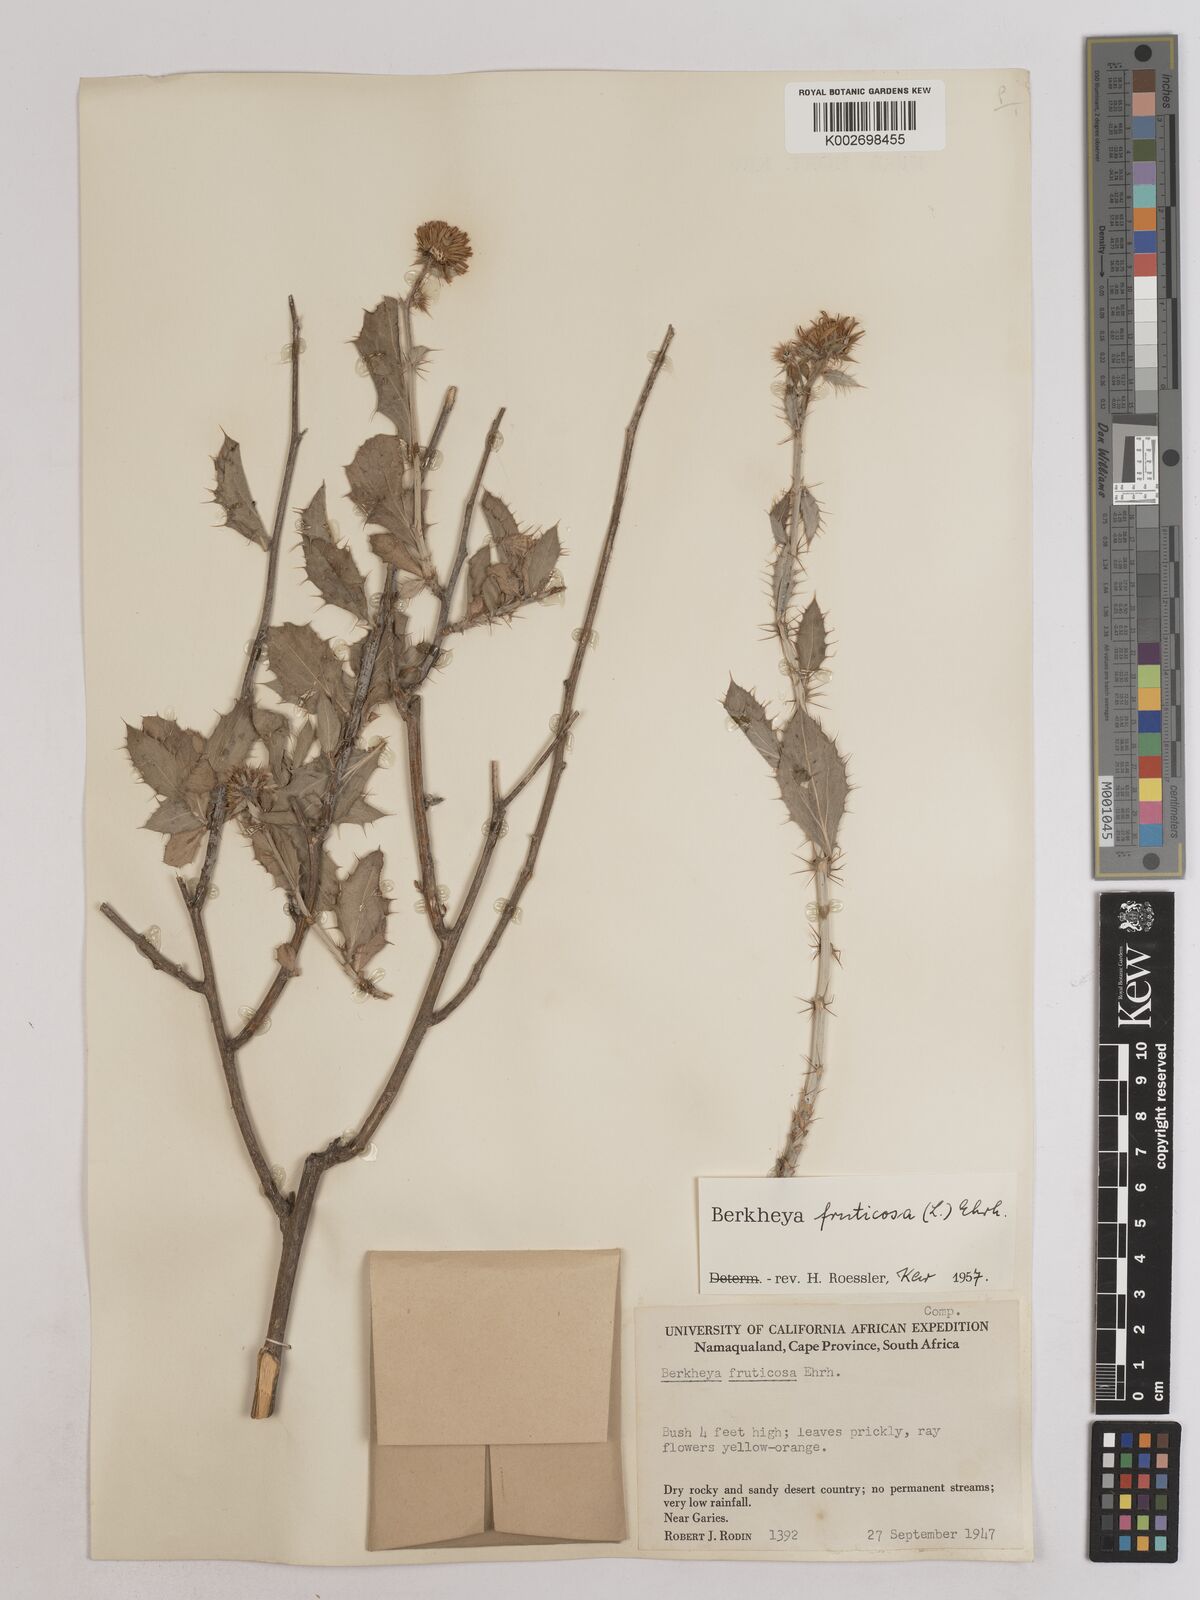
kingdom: Plantae
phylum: Tracheophyta
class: Magnoliopsida
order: Asterales
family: Asteraceae
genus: Berkheya
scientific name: Berkheya fruticosa
